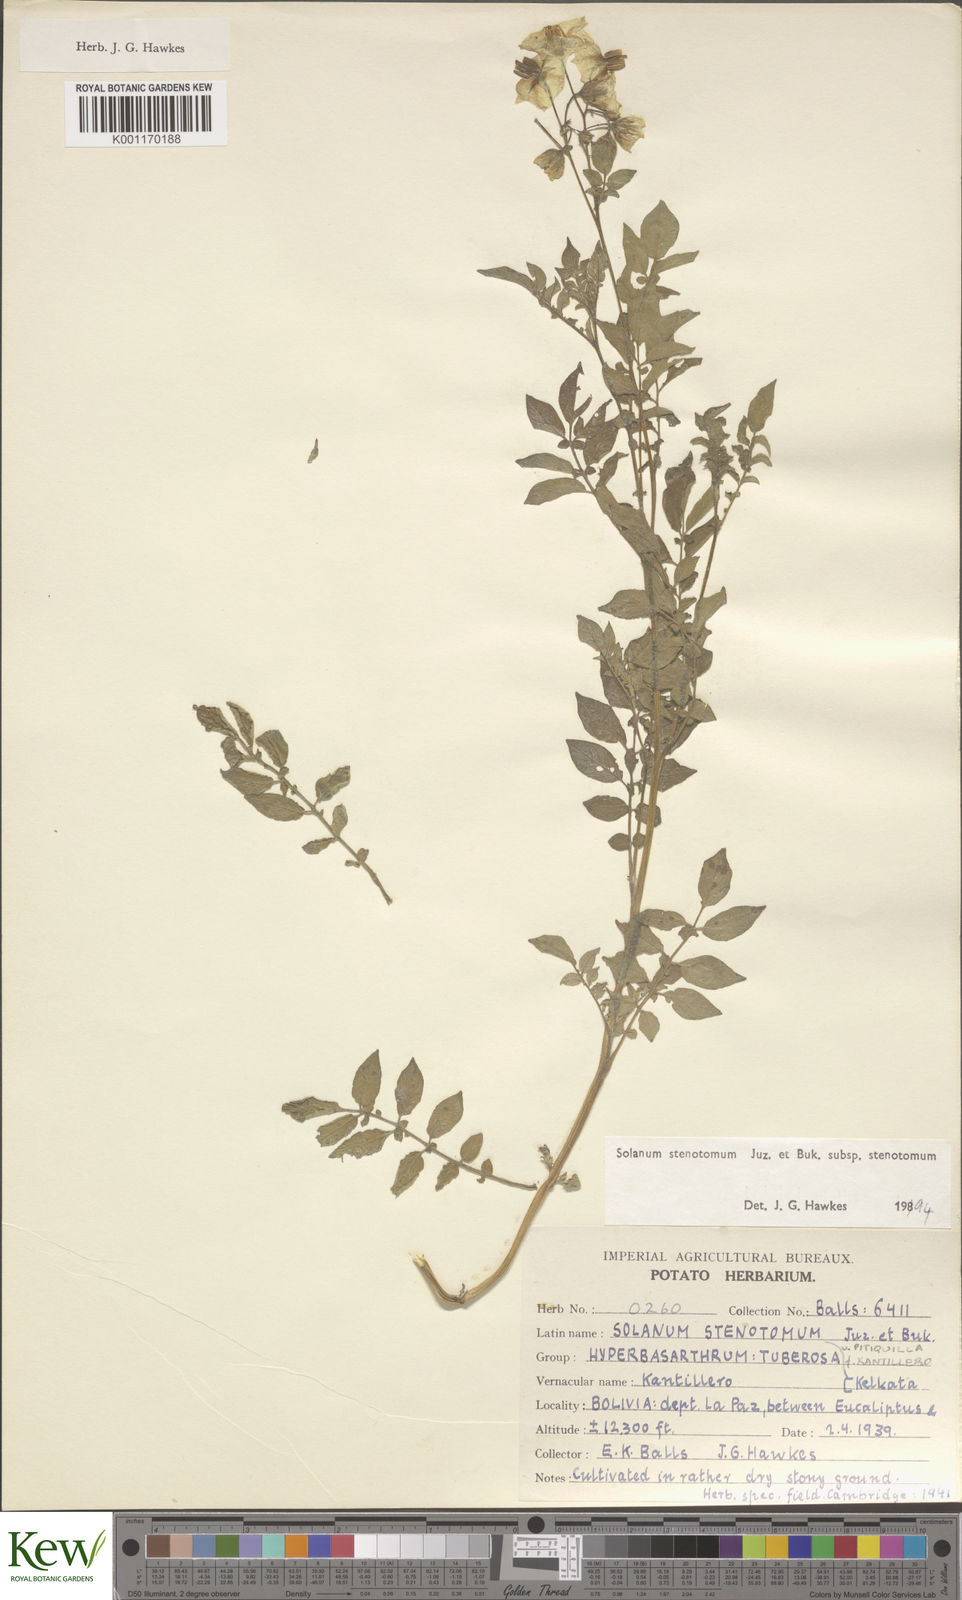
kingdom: Plantae
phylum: Tracheophyta
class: Magnoliopsida
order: Solanales
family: Solanaceae
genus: Solanum
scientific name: Solanum tuberosum
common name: Potato
